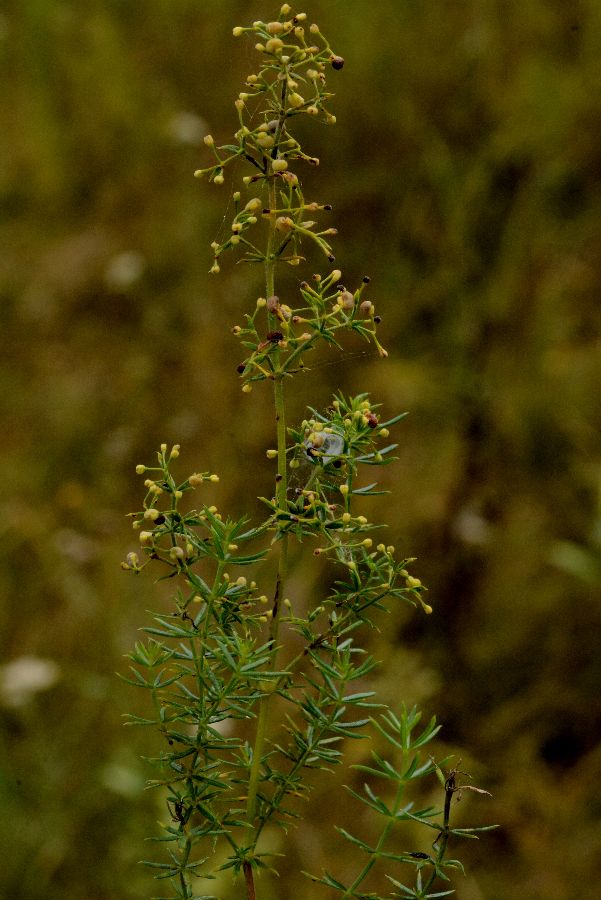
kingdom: Plantae
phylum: Tracheophyta
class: Magnoliopsida
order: Gentianales
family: Rubiaceae
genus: Galium
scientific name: Galium verum
